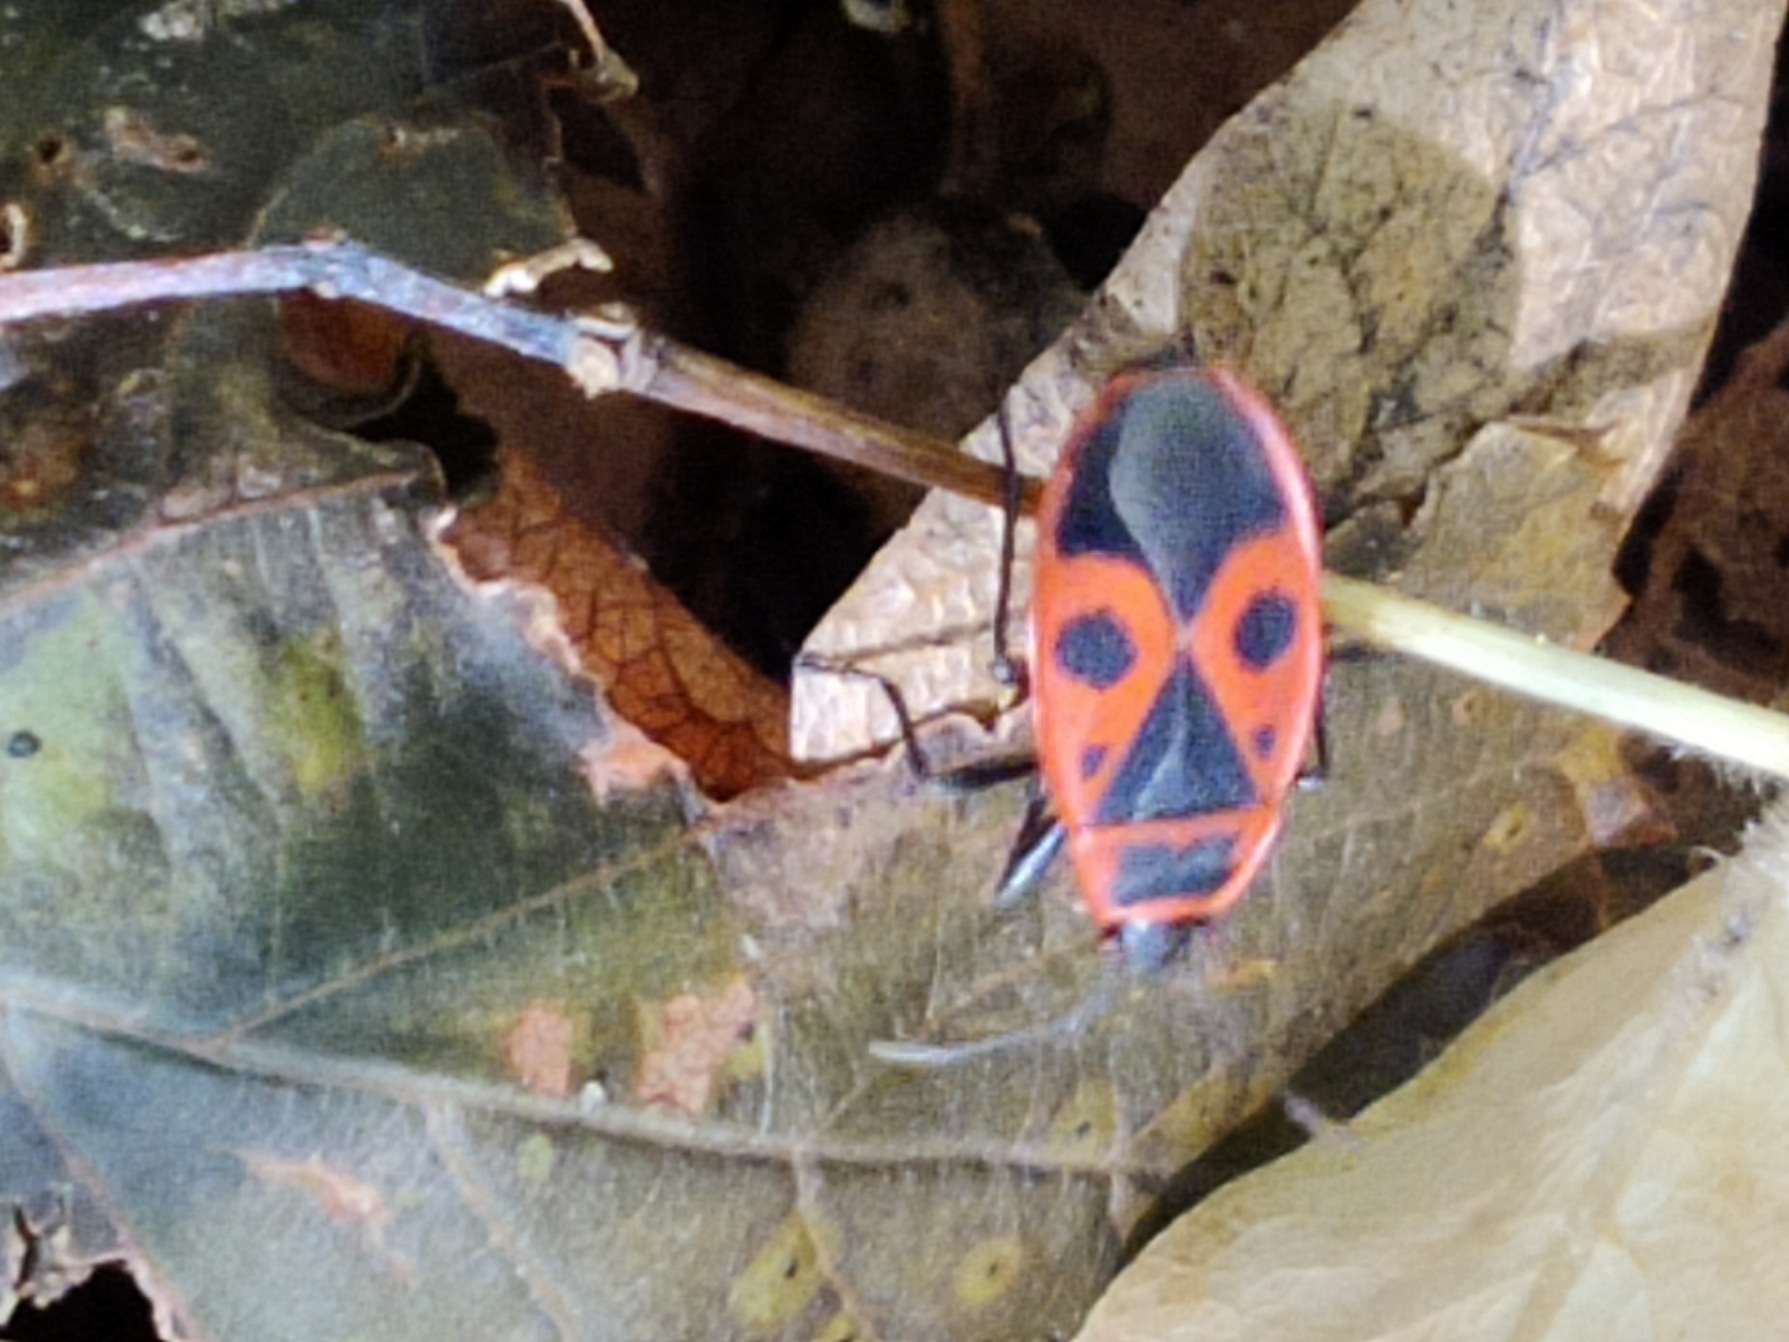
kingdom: Animalia
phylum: Arthropoda
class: Insecta
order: Hemiptera
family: Pyrrhocoridae
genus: Pyrrhocoris
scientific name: Pyrrhocoris apterus
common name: Ildtæge
